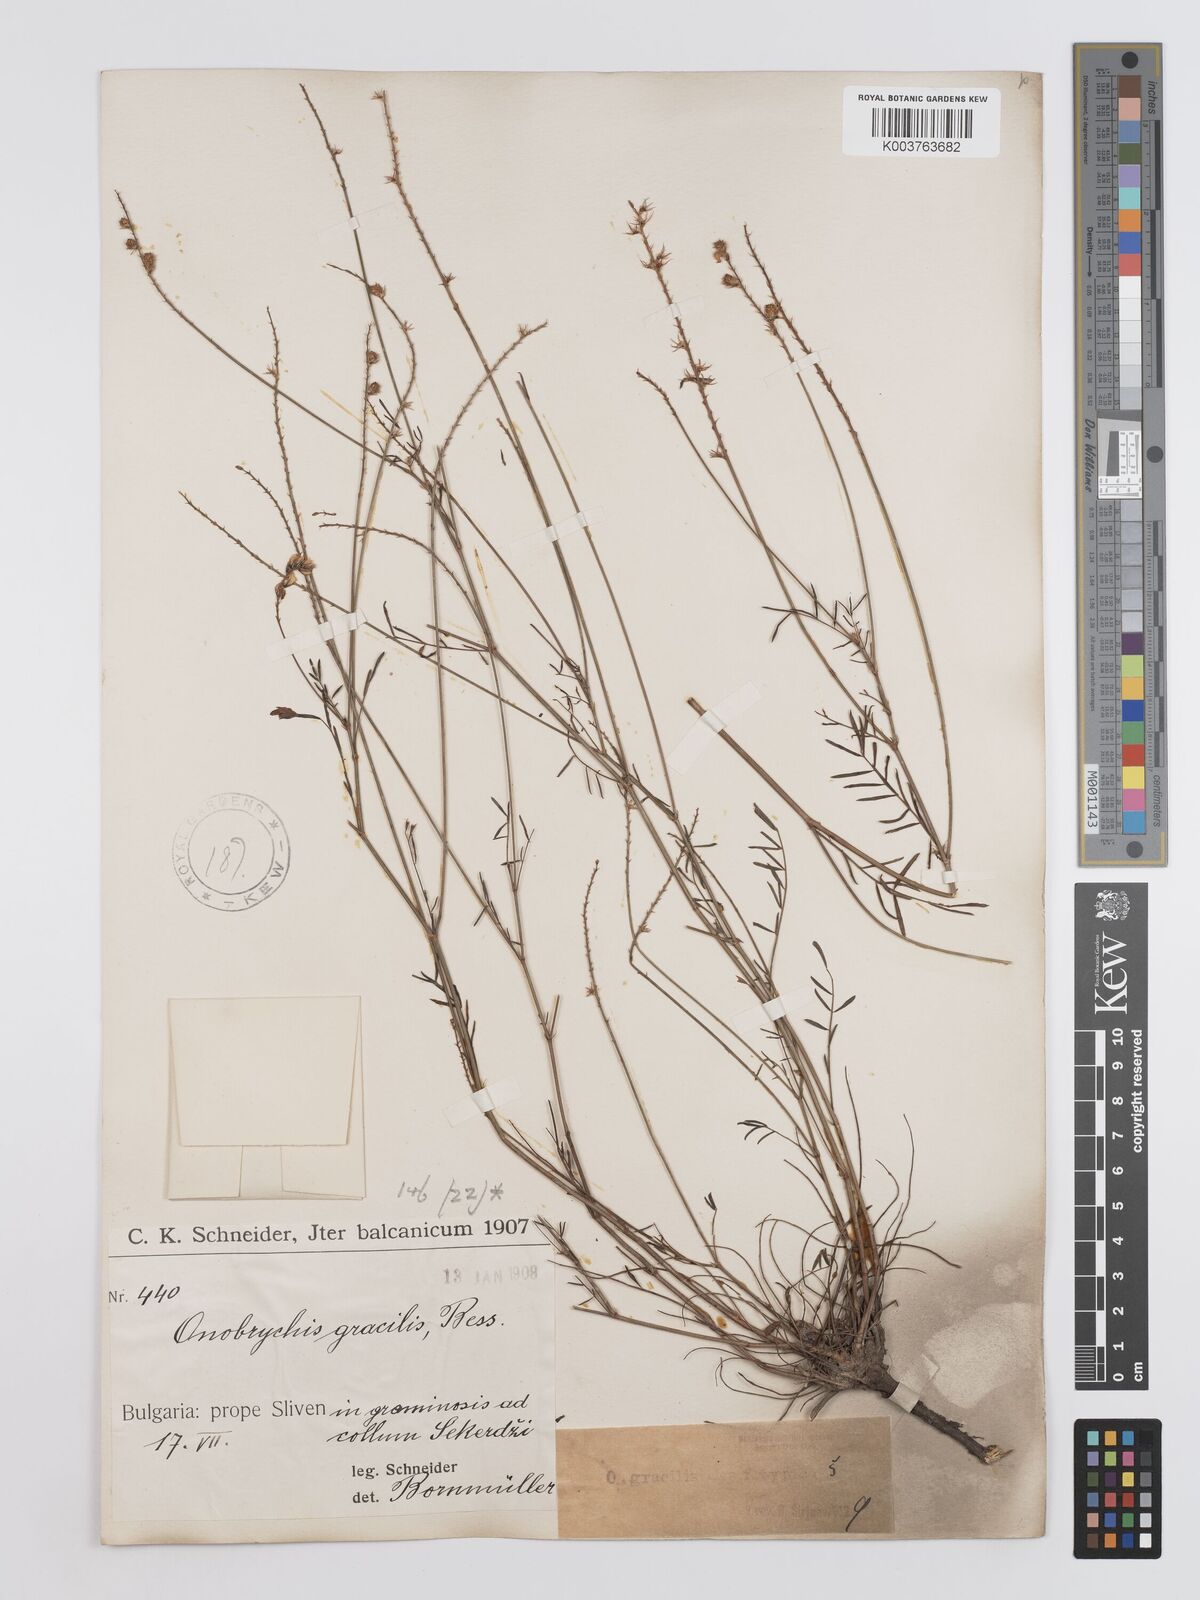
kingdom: Plantae
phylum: Tracheophyta
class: Magnoliopsida
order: Fabales
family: Fabaceae
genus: Onobrychis
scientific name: Onobrychis gracilis
